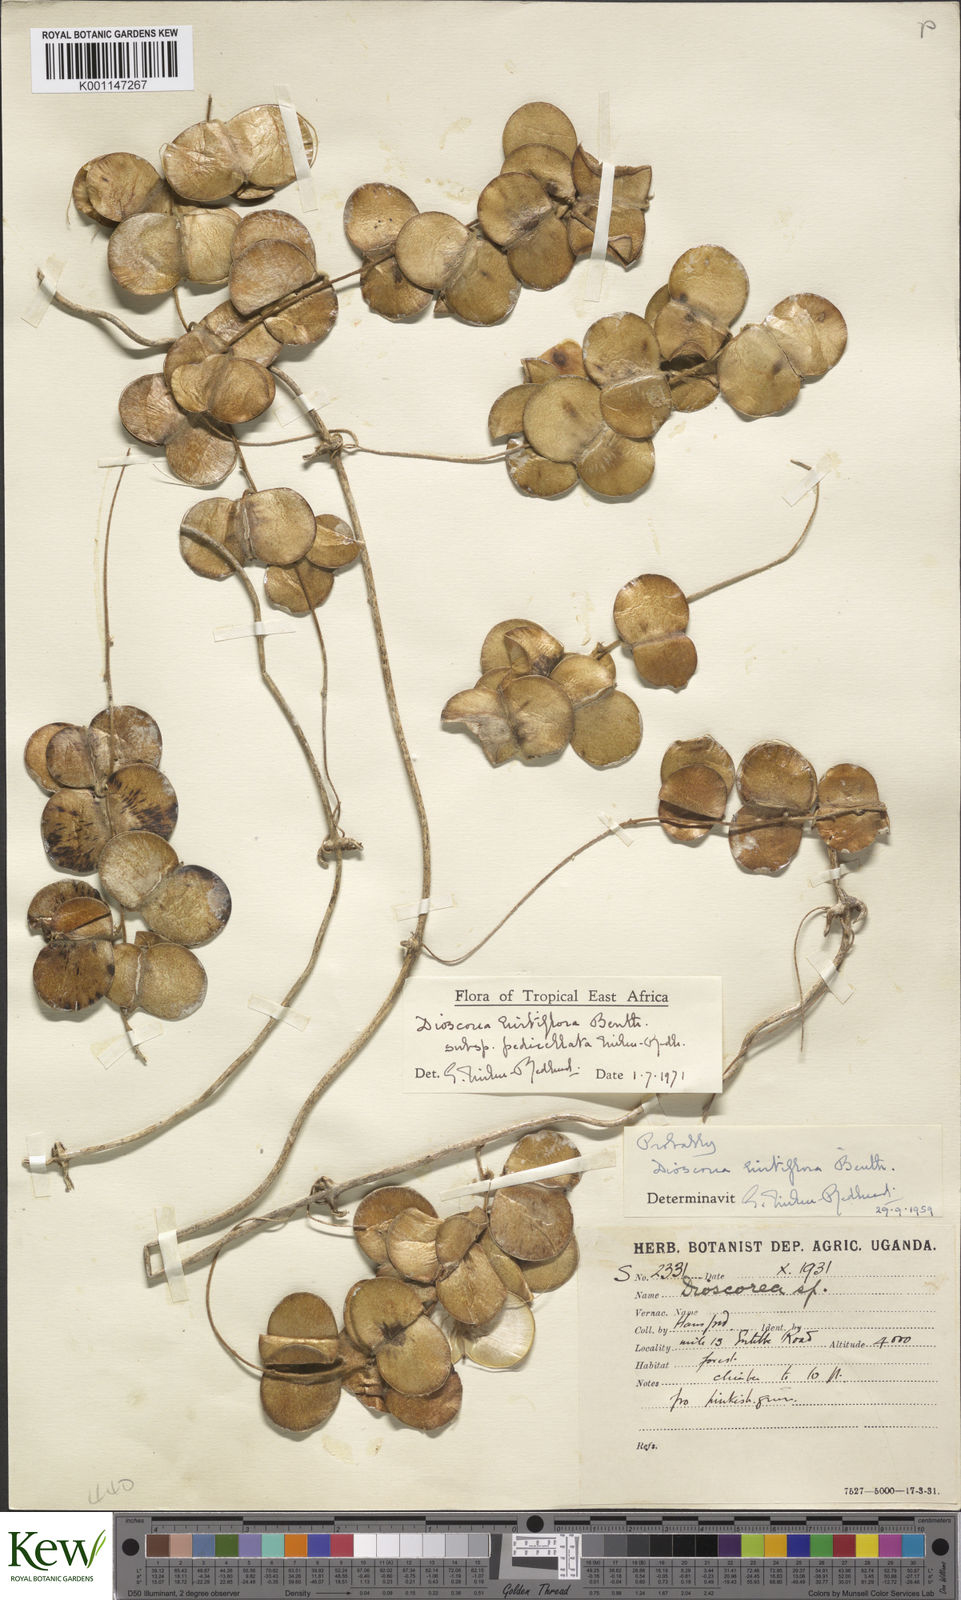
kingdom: Plantae
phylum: Tracheophyta
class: Liliopsida
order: Dioscoreales
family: Dioscoreaceae
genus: Dioscorea
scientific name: Dioscorea hirtiflora
